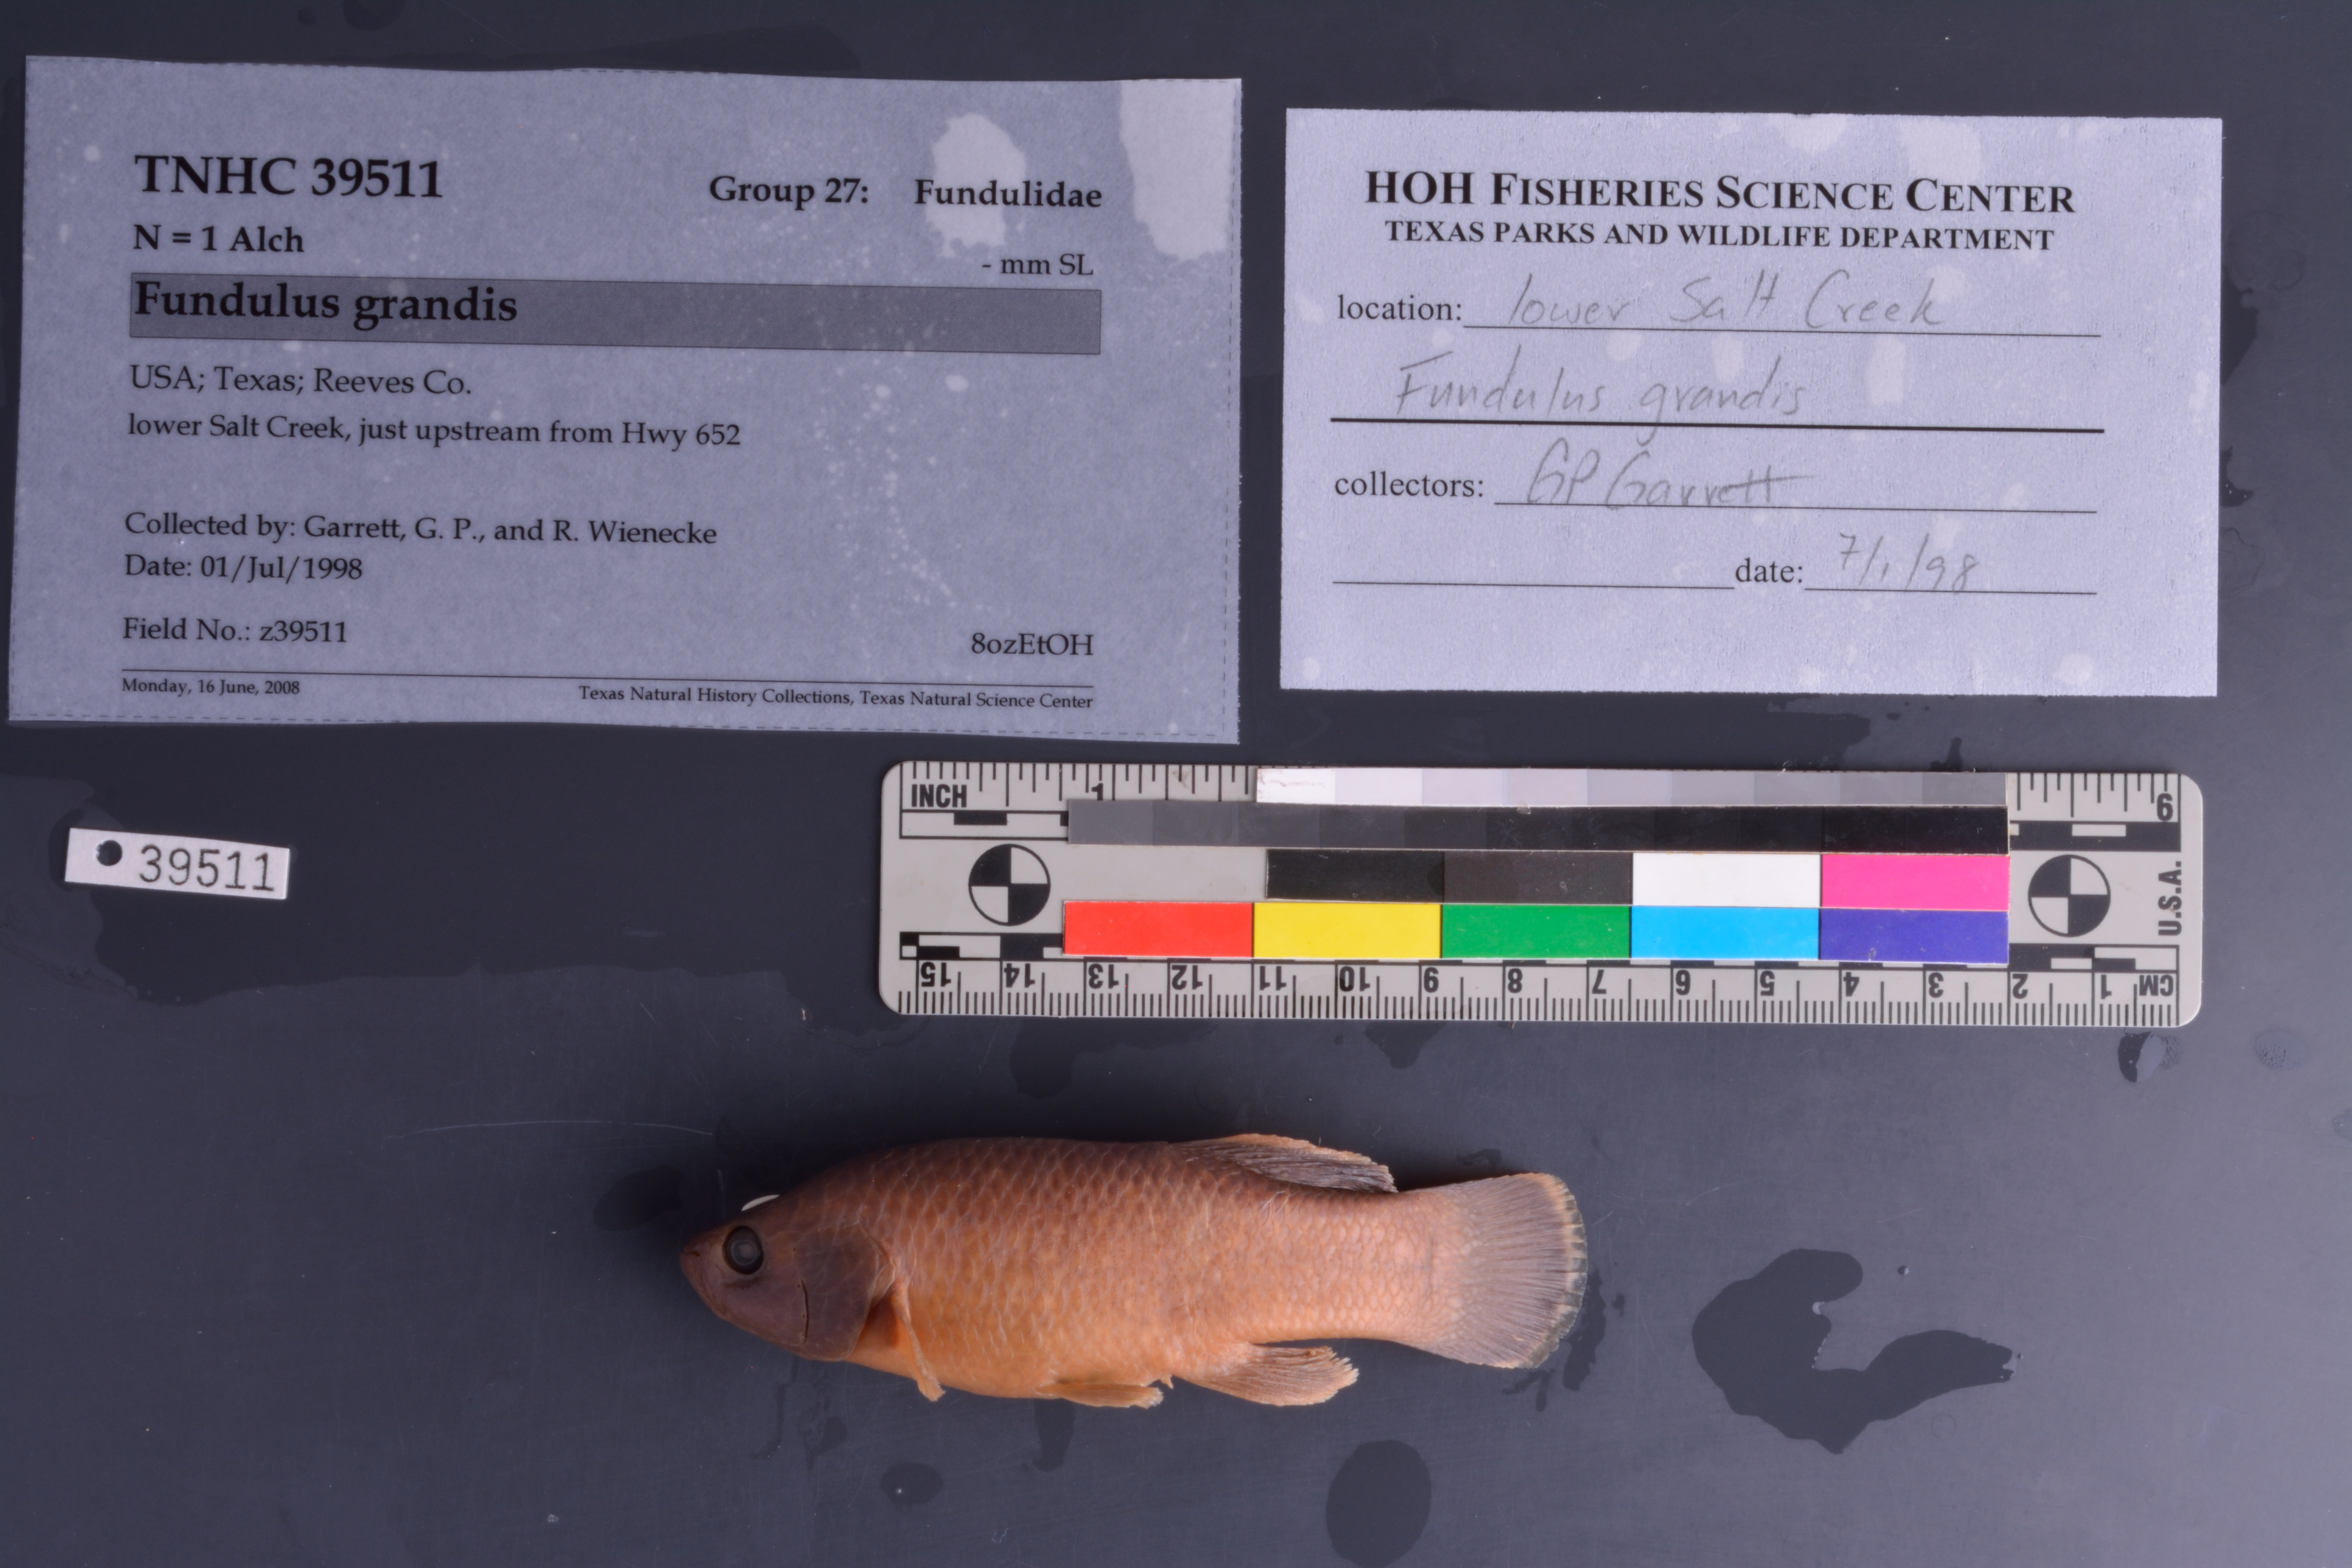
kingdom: Animalia
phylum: Chordata
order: Cyprinodontiformes
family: Fundulidae
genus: Fundulus
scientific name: Fundulus grandis
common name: Gulf killifish
